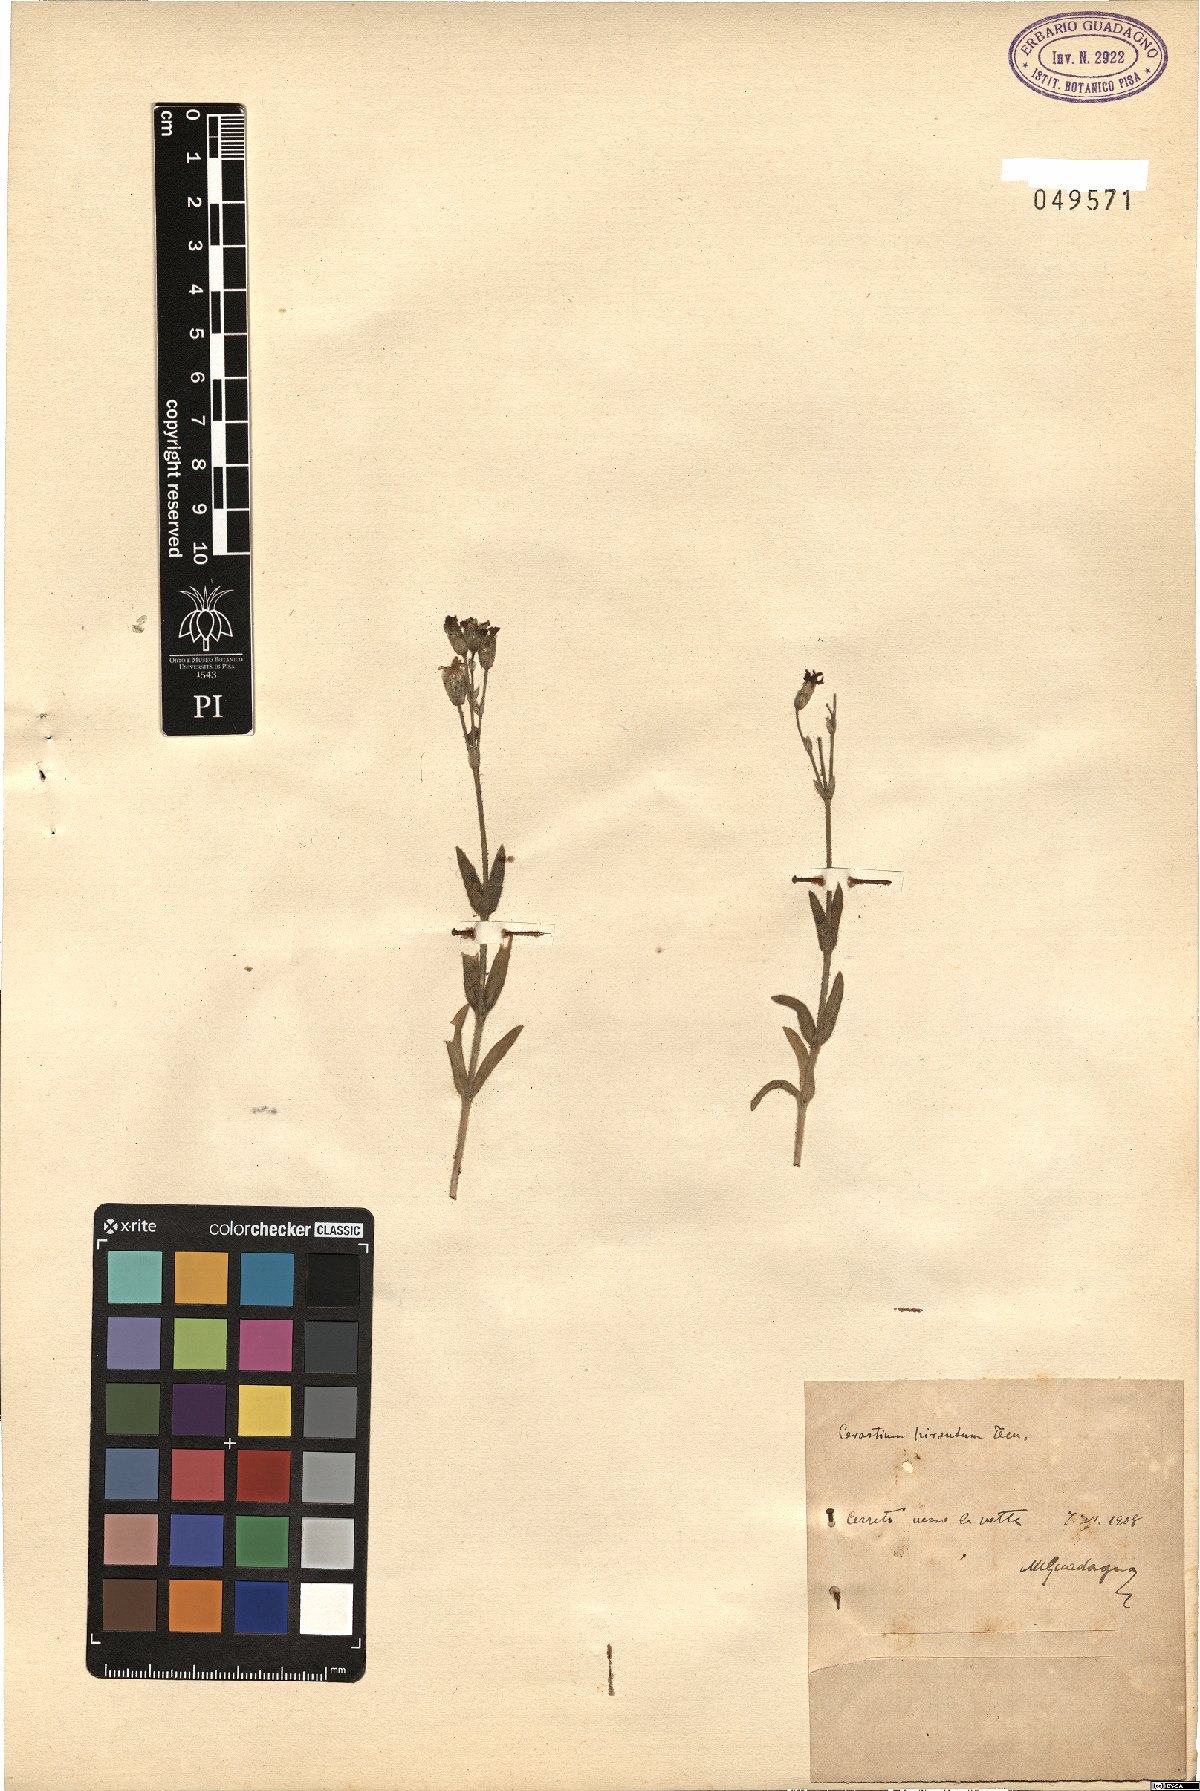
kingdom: Plantae
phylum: Tracheophyta
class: Magnoliopsida
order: Caryophyllales
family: Caryophyllaceae
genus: Cerastium
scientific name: Cerastium scaranii
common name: Italian mouse-ear
